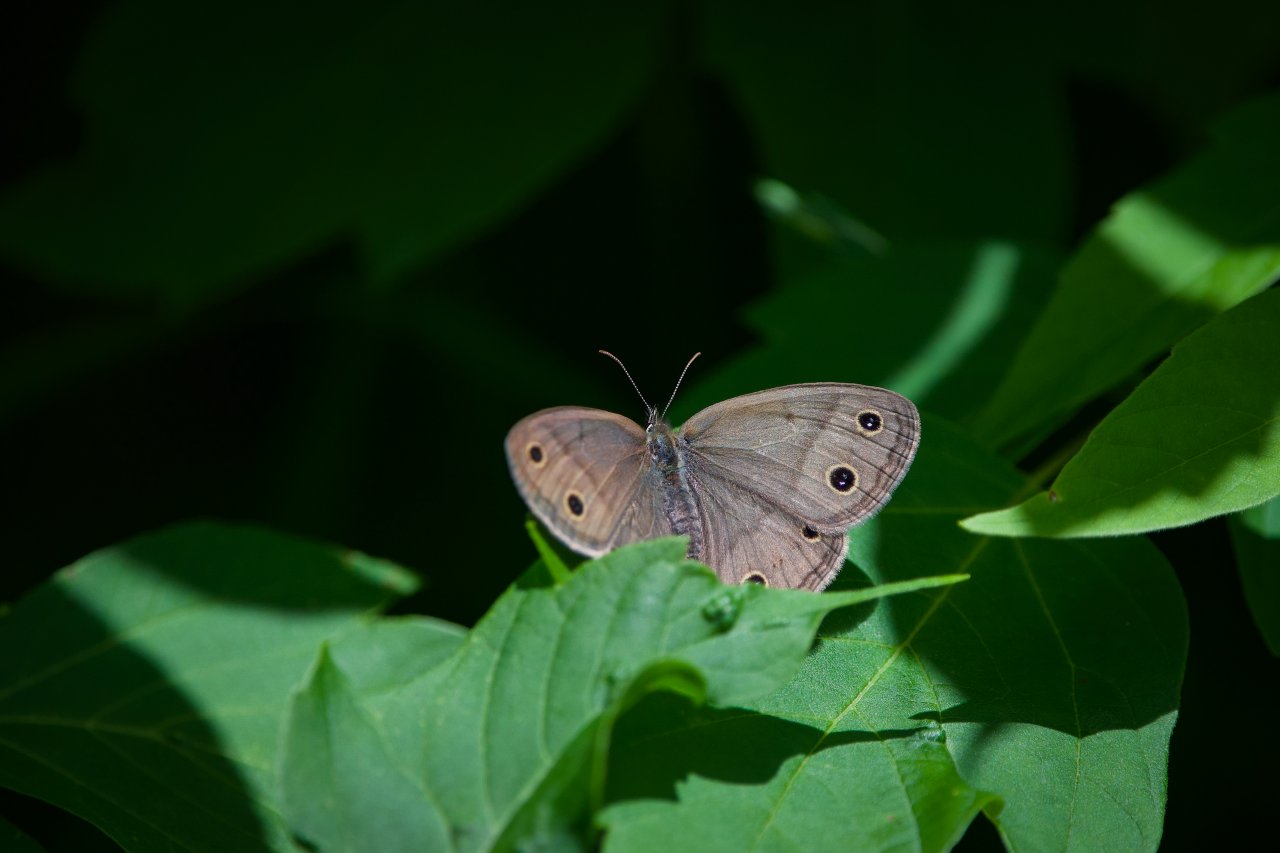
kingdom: Animalia
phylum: Arthropoda
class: Insecta
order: Lepidoptera
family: Nymphalidae
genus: Euptychia
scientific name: Euptychia cymela
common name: Little Wood Satyr
